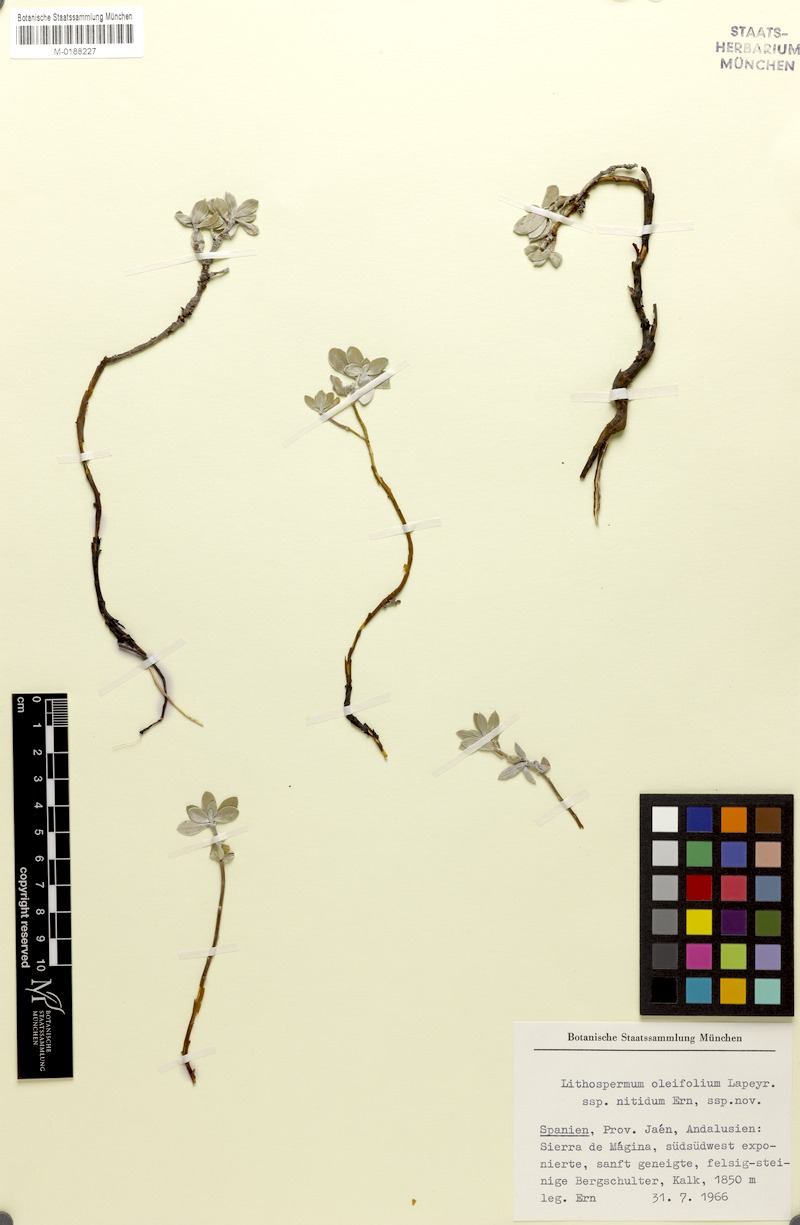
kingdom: Plantae
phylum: Tracheophyta
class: Magnoliopsida
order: Boraginales
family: Boraginaceae
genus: Glandora
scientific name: Glandora nitida
